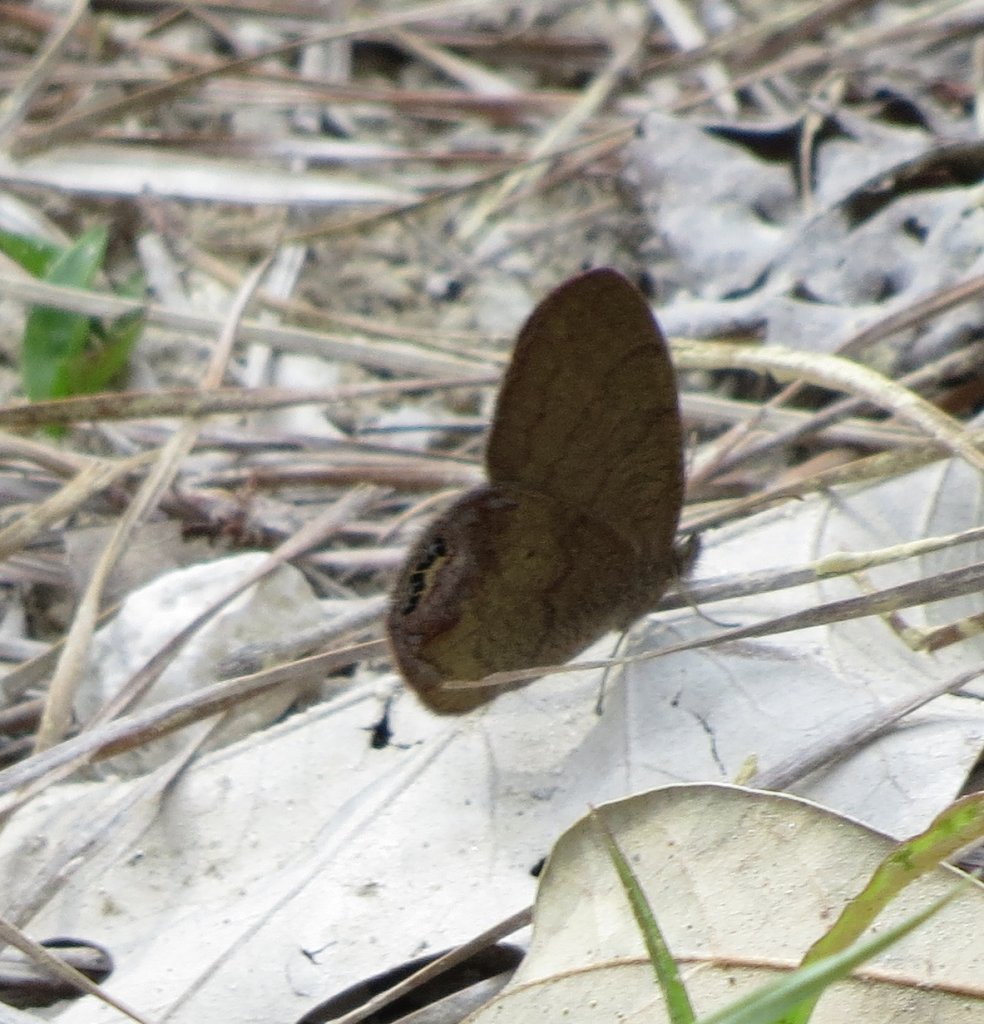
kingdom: Animalia
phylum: Arthropoda
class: Insecta
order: Lepidoptera
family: Nymphalidae
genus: Euptychia
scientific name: Euptychia cornelius
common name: Gemmed Satyr
